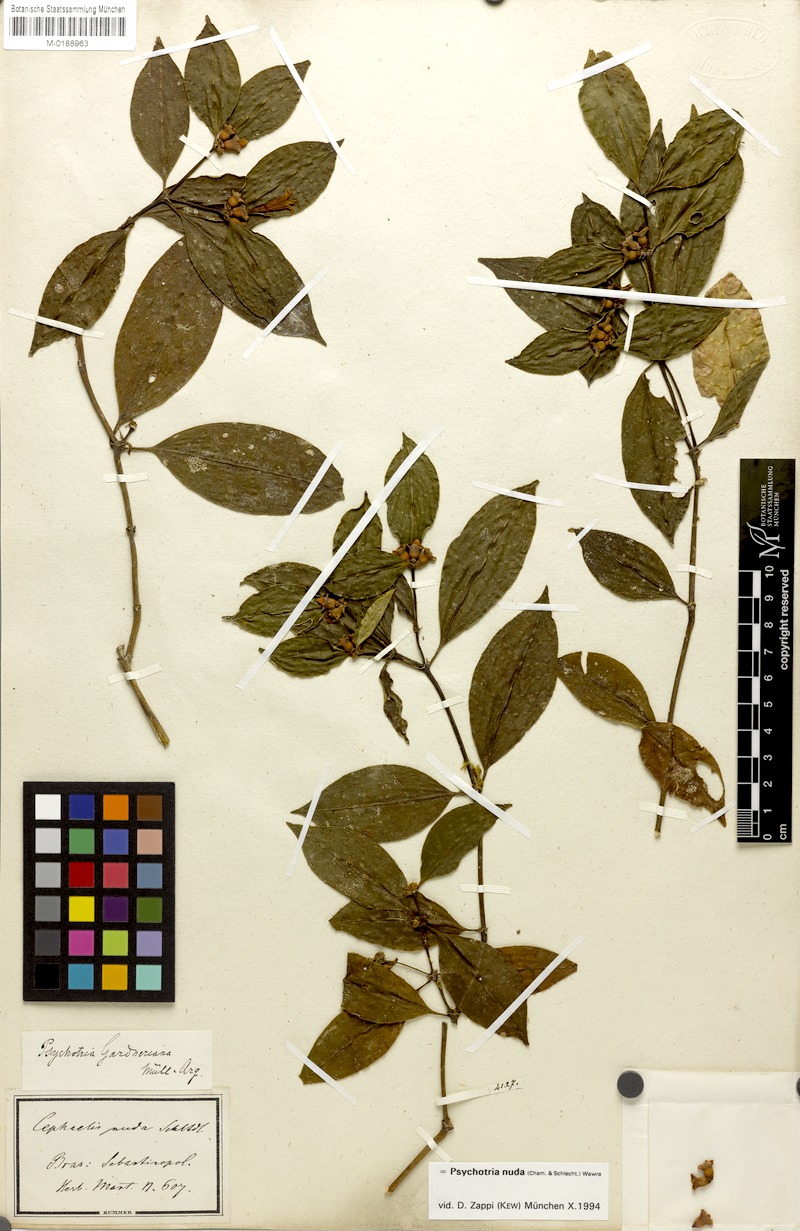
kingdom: Plantae
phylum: Tracheophyta
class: Magnoliopsida
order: Gentianales
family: Rubiaceae
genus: Psychotria
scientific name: Psychotria nuda
